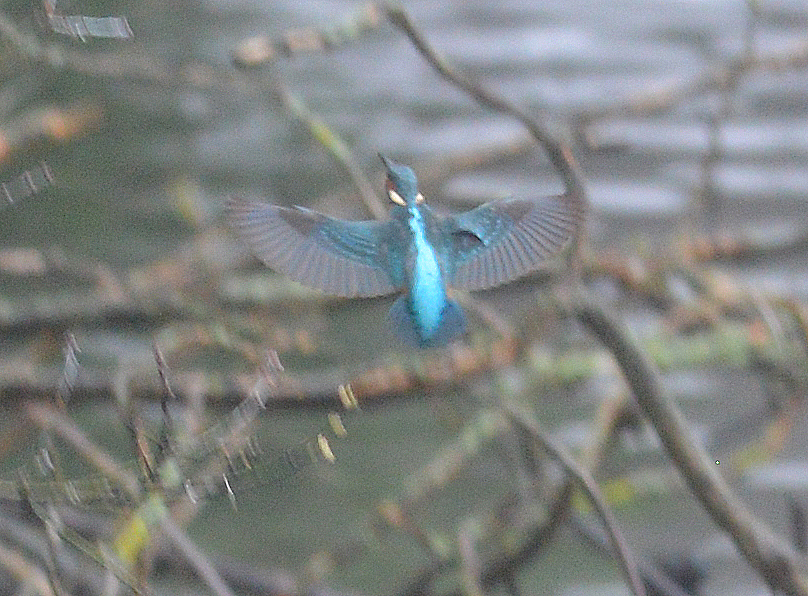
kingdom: Animalia
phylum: Chordata
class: Aves
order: Coraciiformes
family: Alcedinidae
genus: Alcedo
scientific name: Alcedo atthis
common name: Common kingfisher
